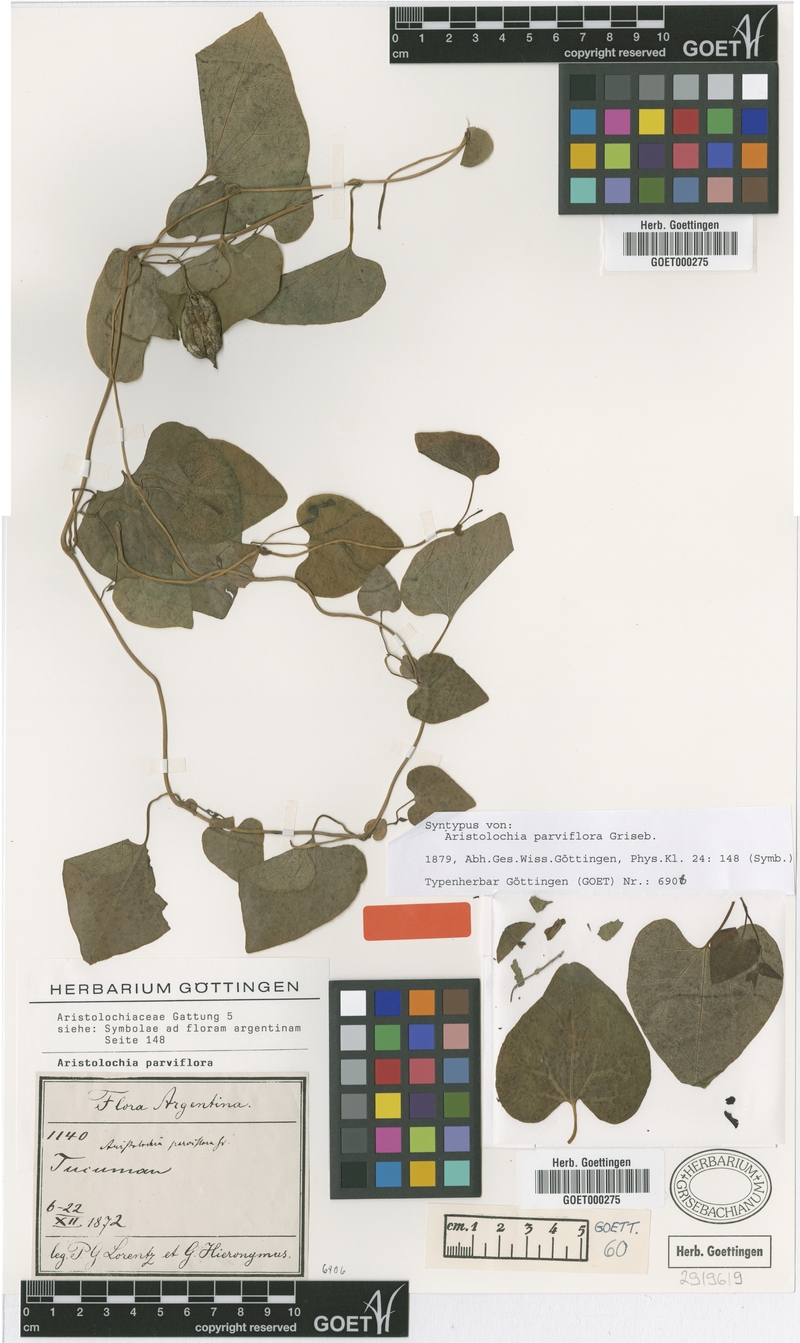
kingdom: Plantae
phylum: Tracheophyta
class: Magnoliopsida
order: Piperales
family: Aristolochiaceae
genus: Aristolochia
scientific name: Aristolochia argentina
